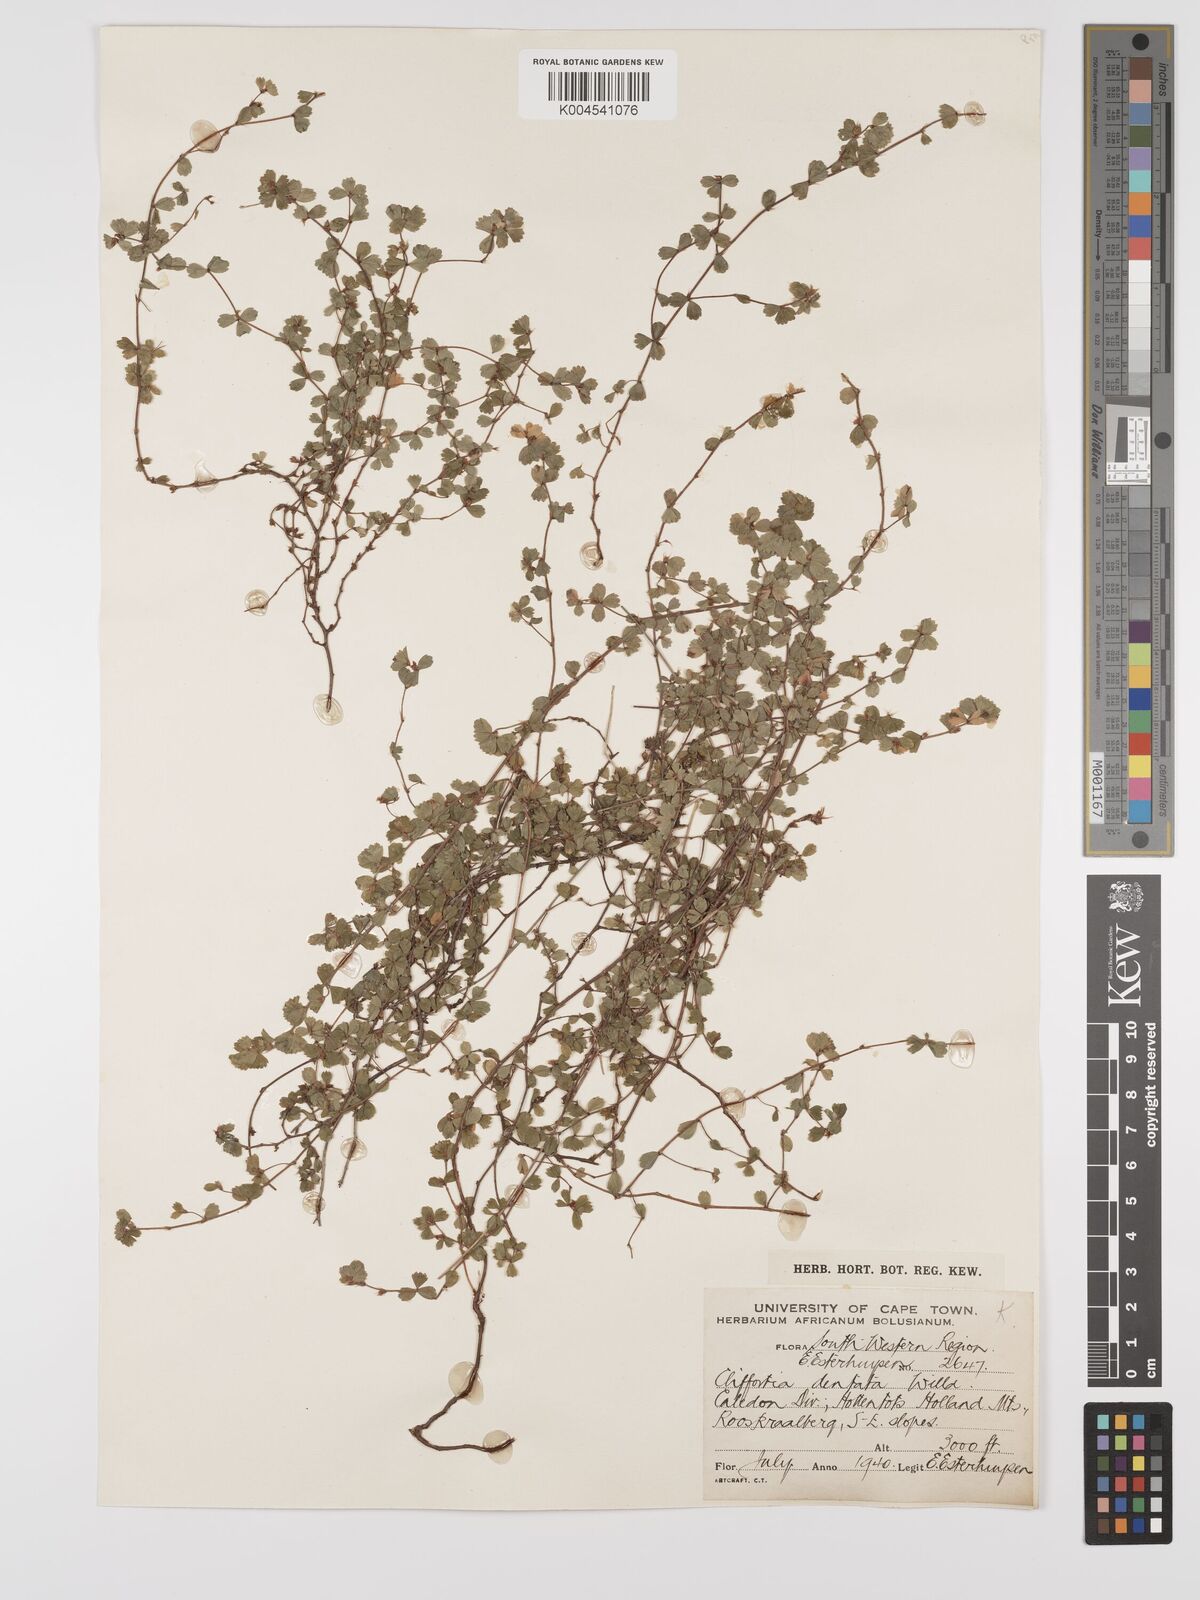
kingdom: Plantae
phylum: Tracheophyta
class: Magnoliopsida
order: Rosales
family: Rosaceae
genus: Cliffortia
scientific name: Cliffortia
